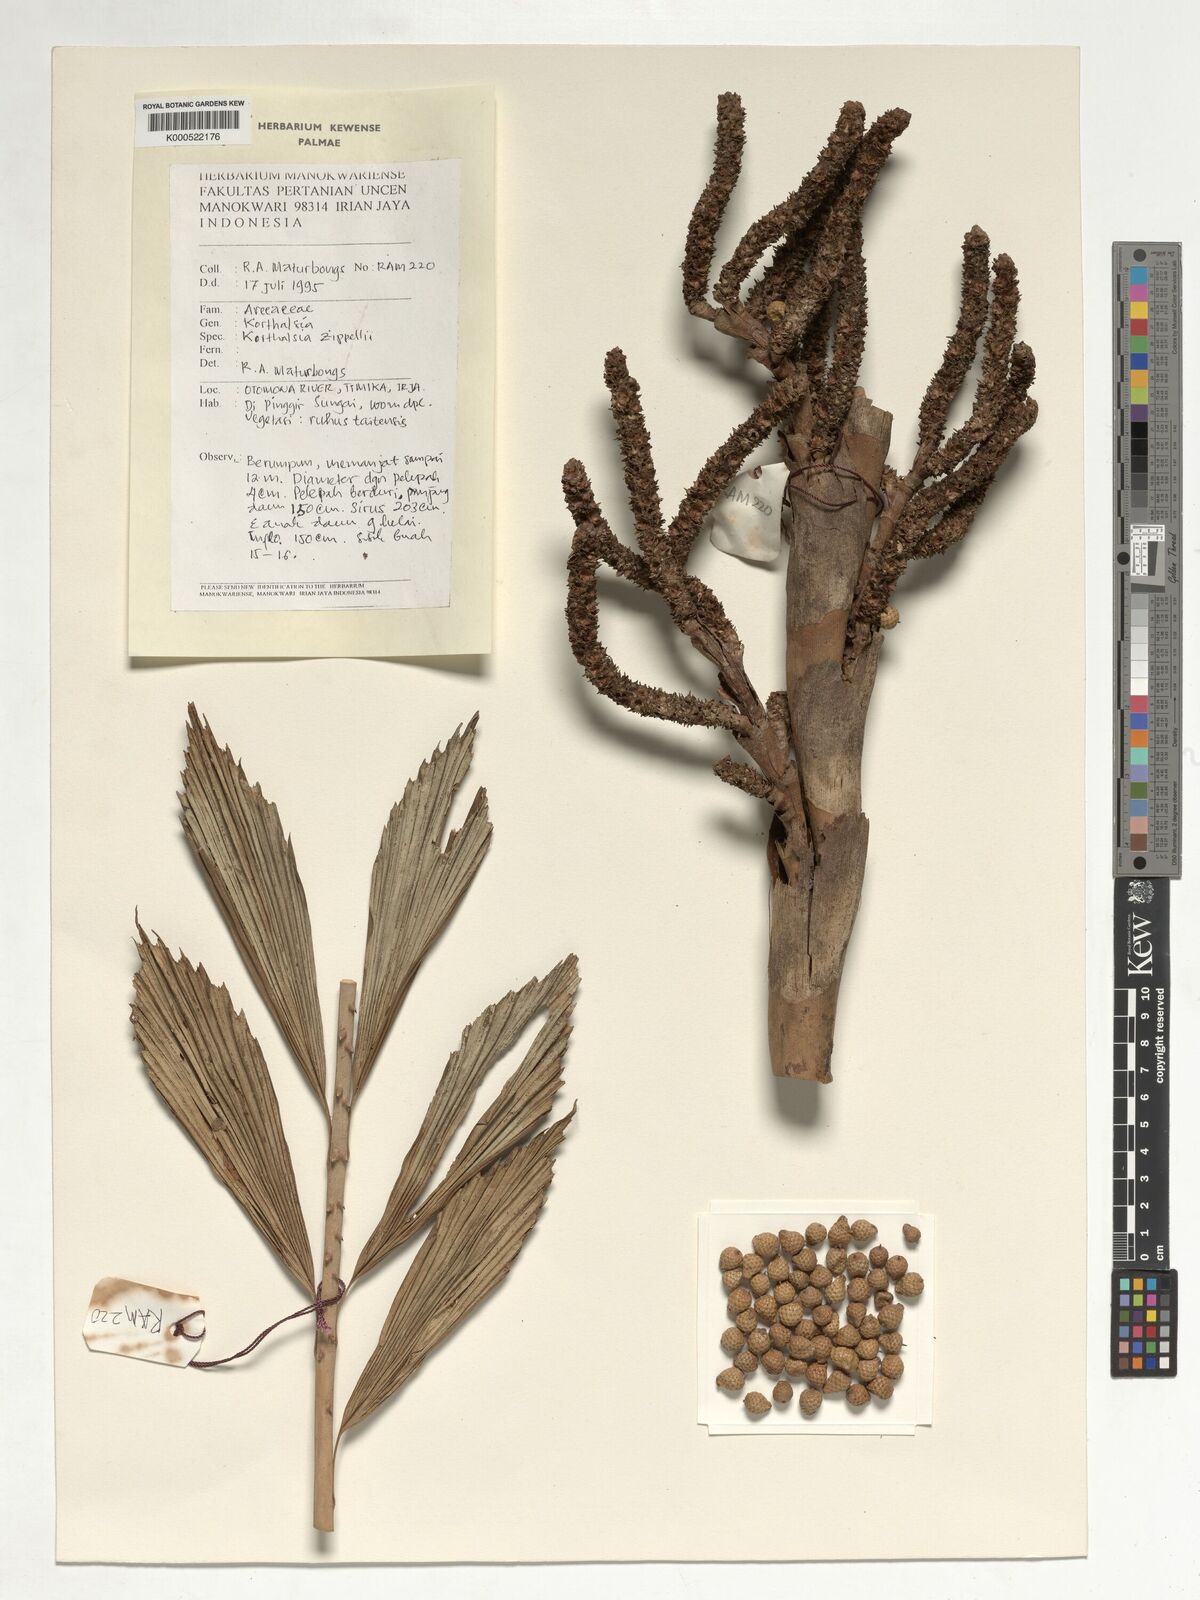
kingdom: Plantae
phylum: Tracheophyta
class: Liliopsida
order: Arecales
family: Arecaceae
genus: Korthalsia
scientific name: Korthalsia zippelii
